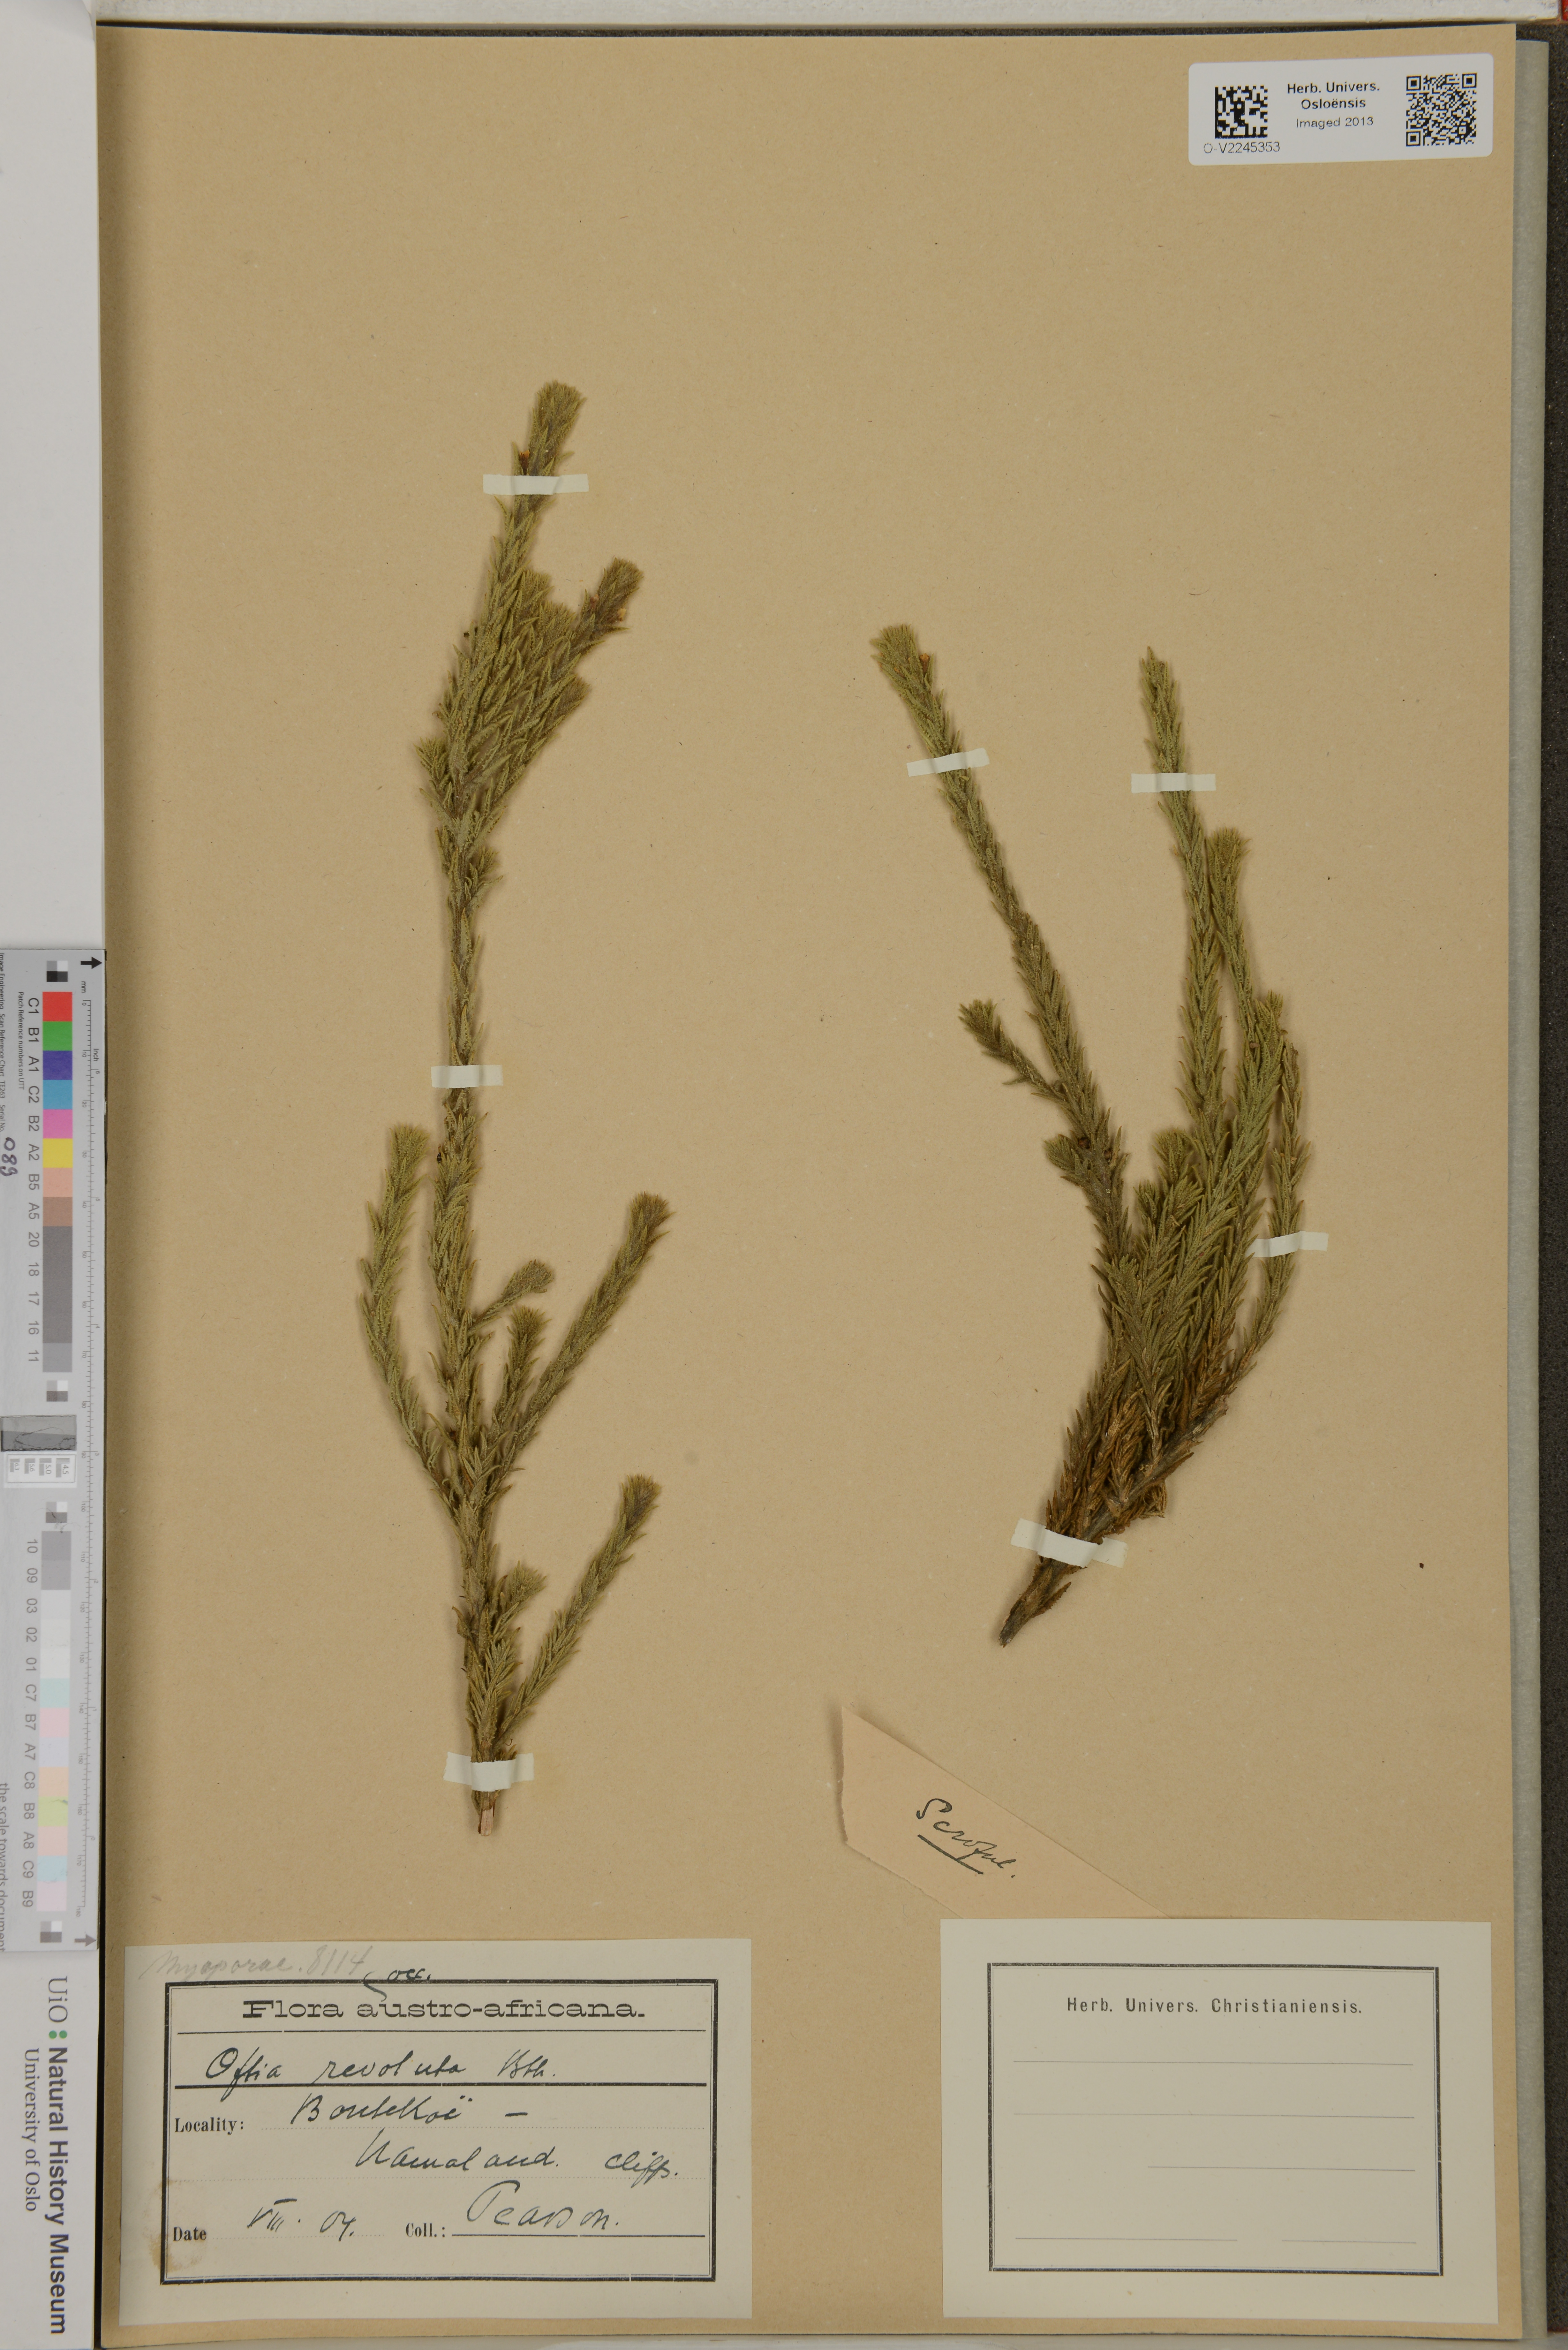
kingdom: Plantae
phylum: Tracheophyta
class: Magnoliopsida
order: Lamiales
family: Scrophulariaceae
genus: Oftia
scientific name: Oftia revoluta
